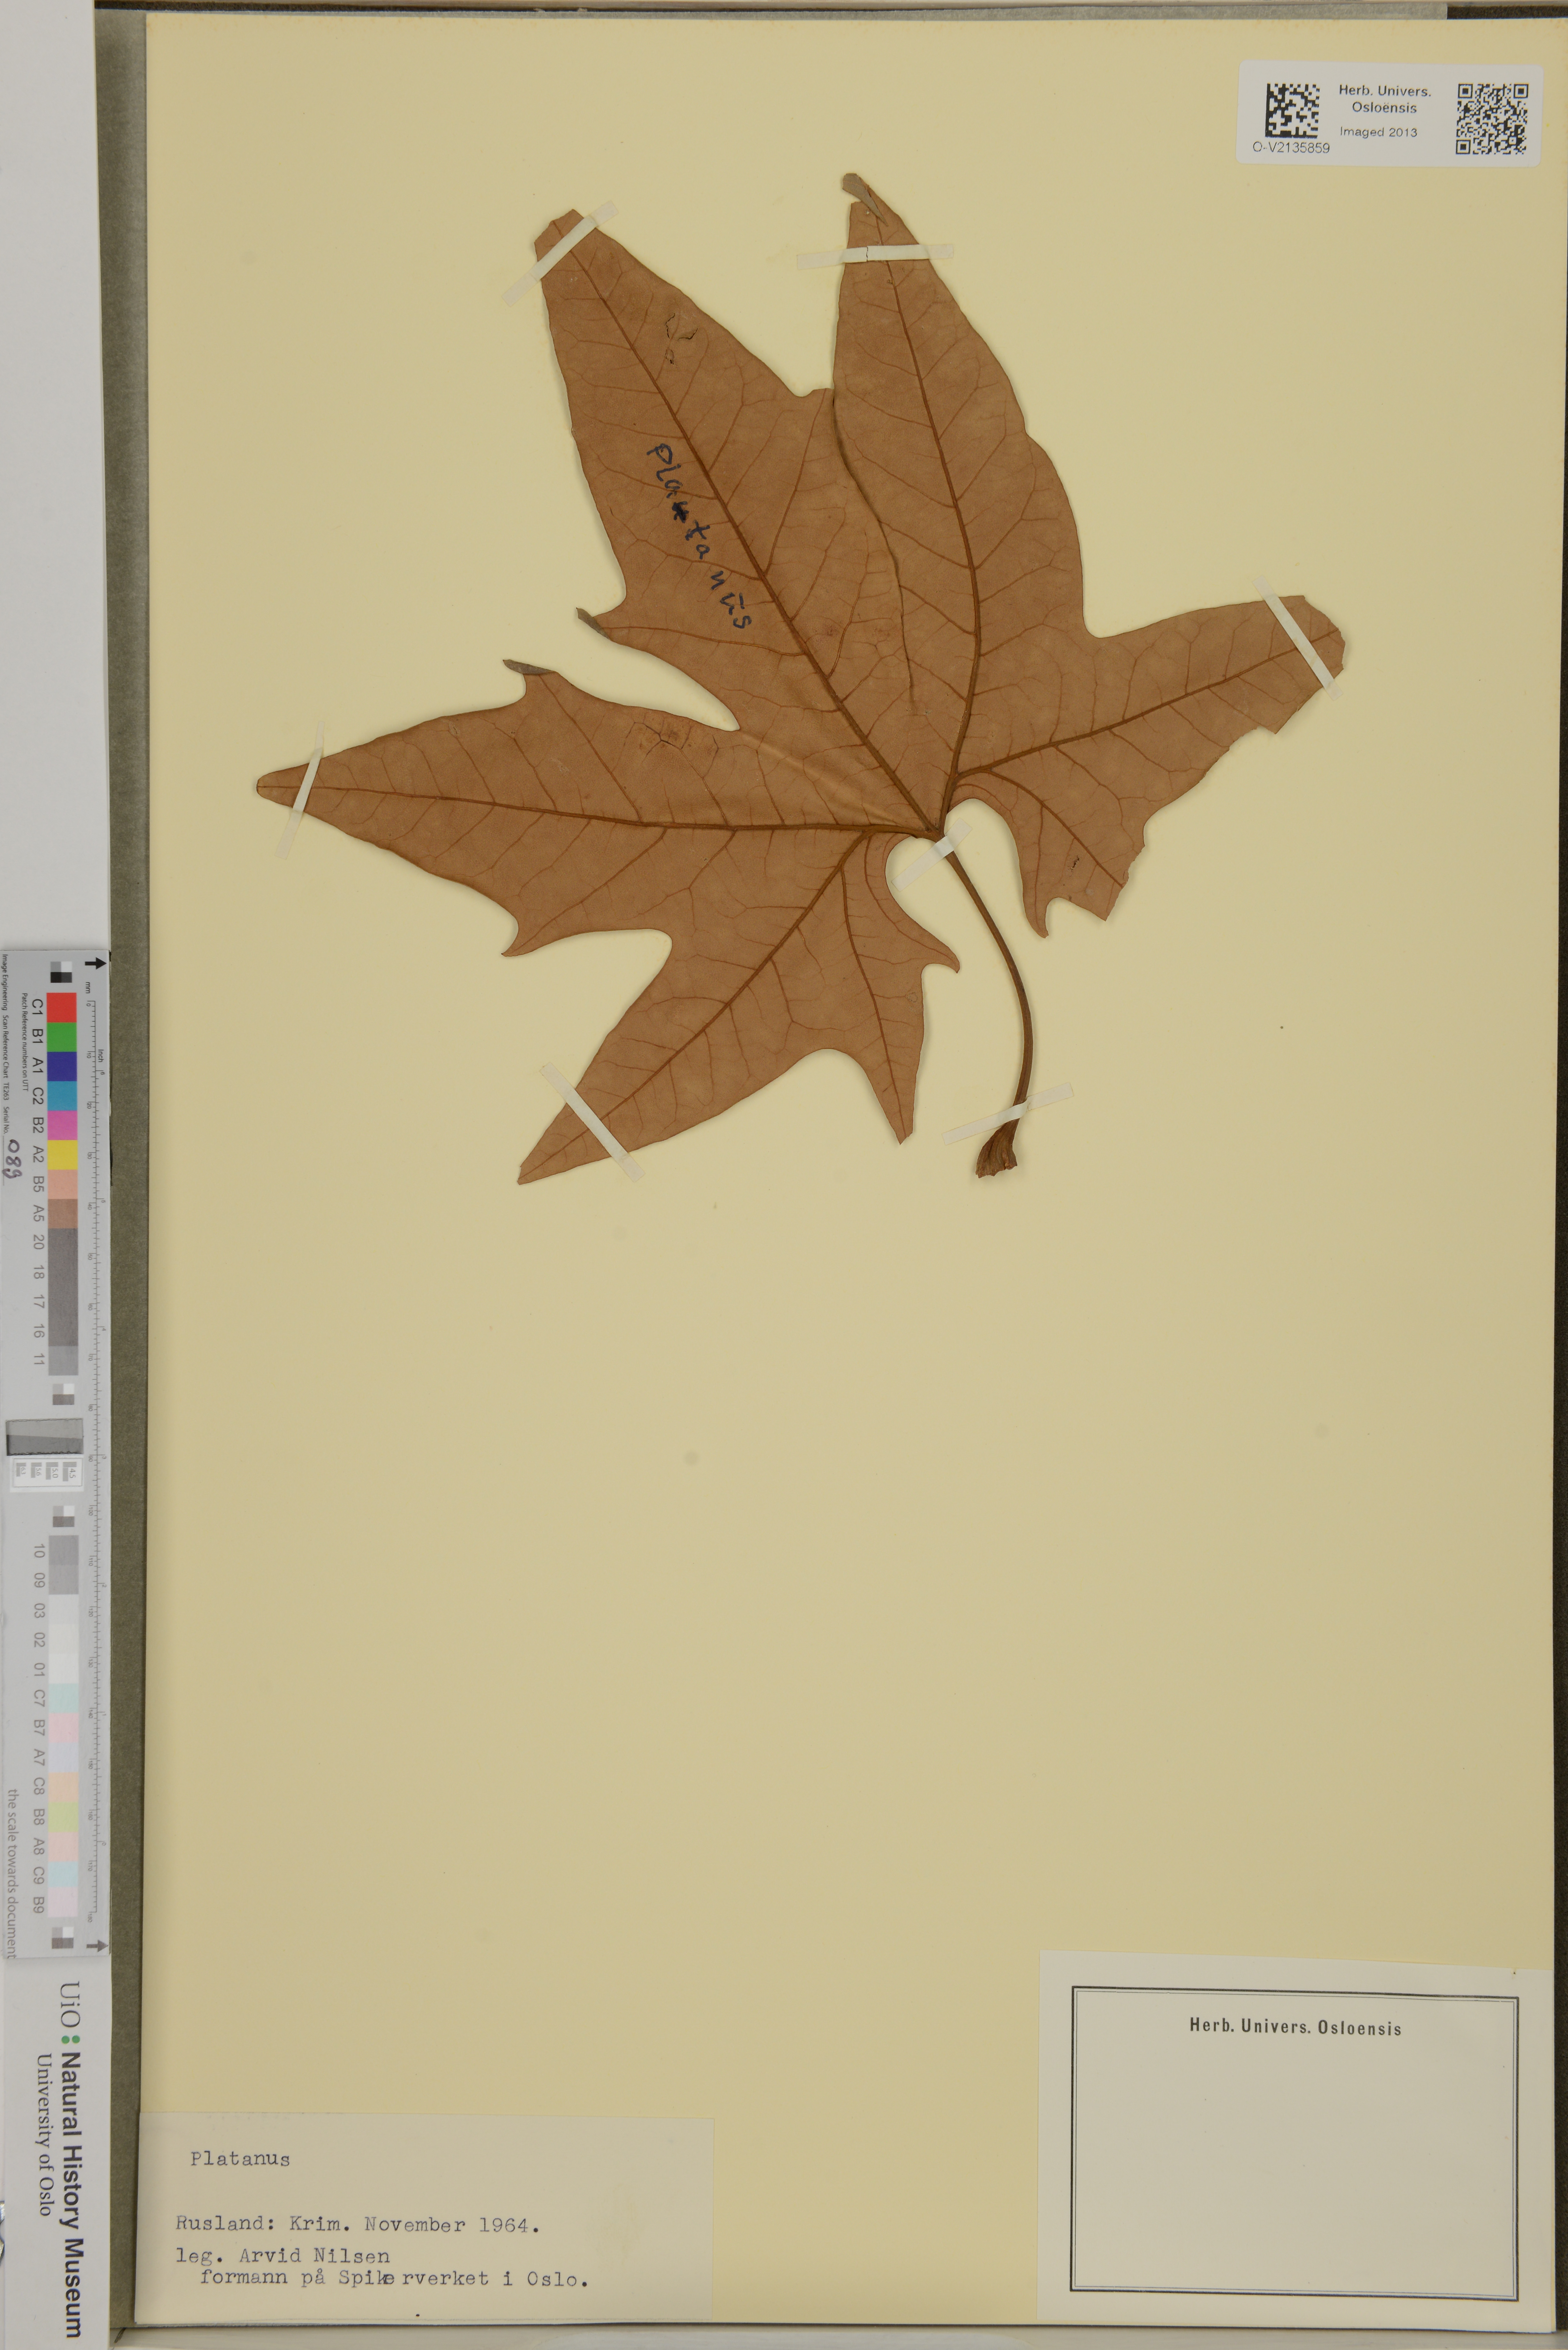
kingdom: Plantae
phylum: Tracheophyta
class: Magnoliopsida
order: Proteales
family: Platanaceae
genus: Platanus
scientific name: Platanus
